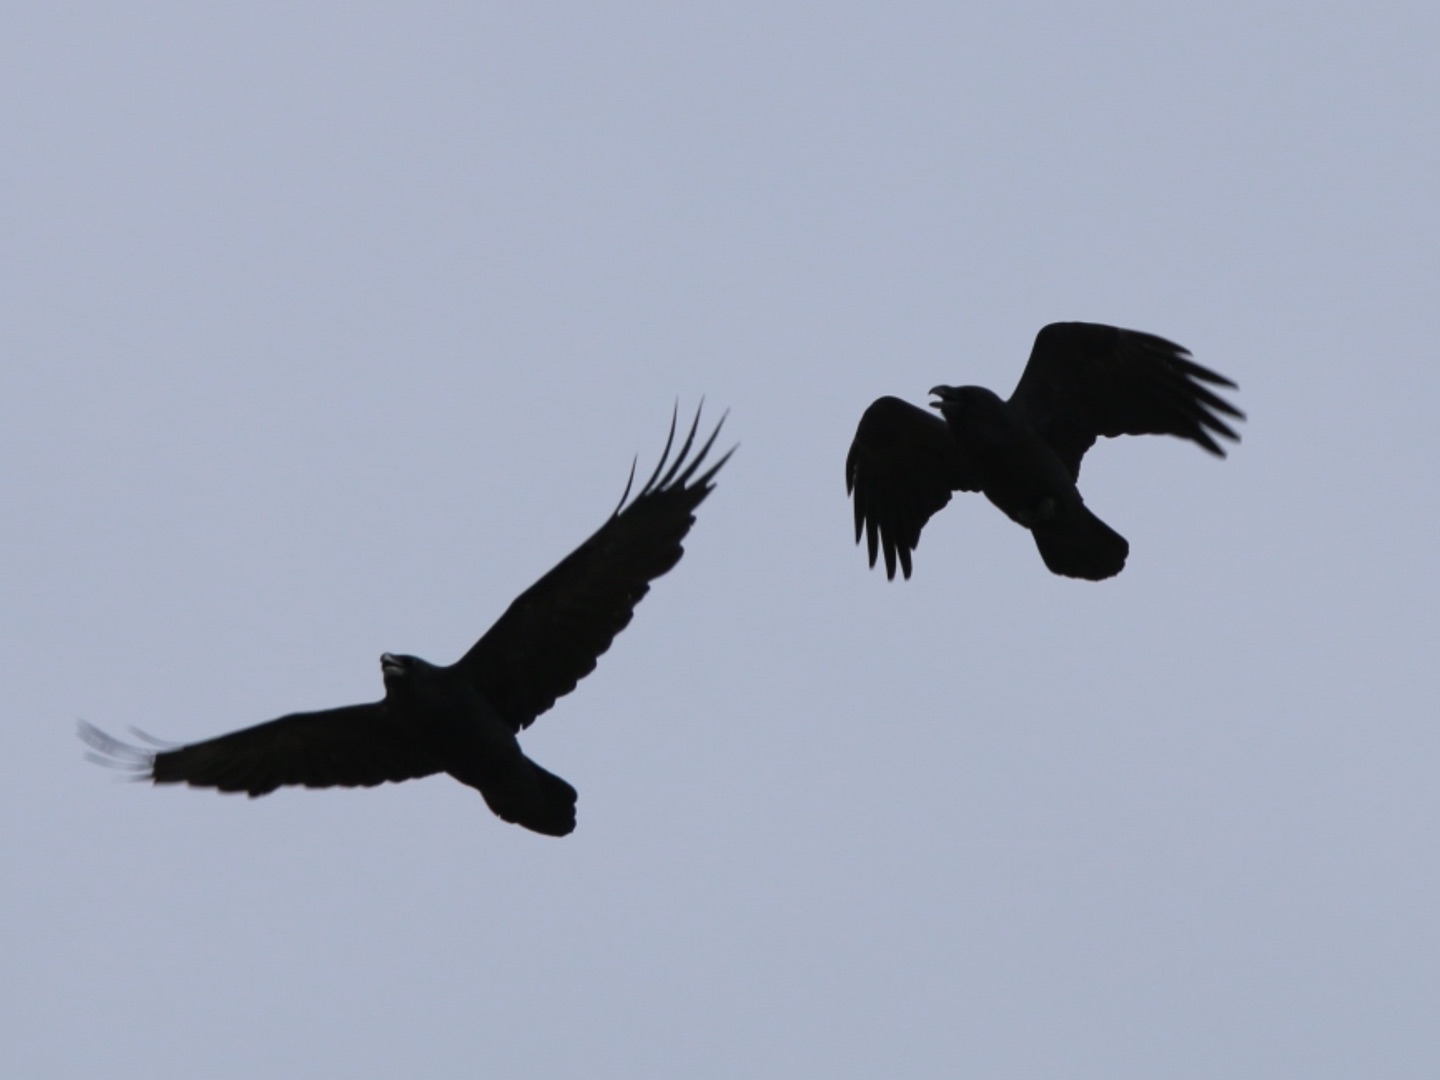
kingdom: Animalia
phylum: Chordata
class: Aves
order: Passeriformes
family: Corvidae
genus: Corvus
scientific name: Corvus corax
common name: Ravn
